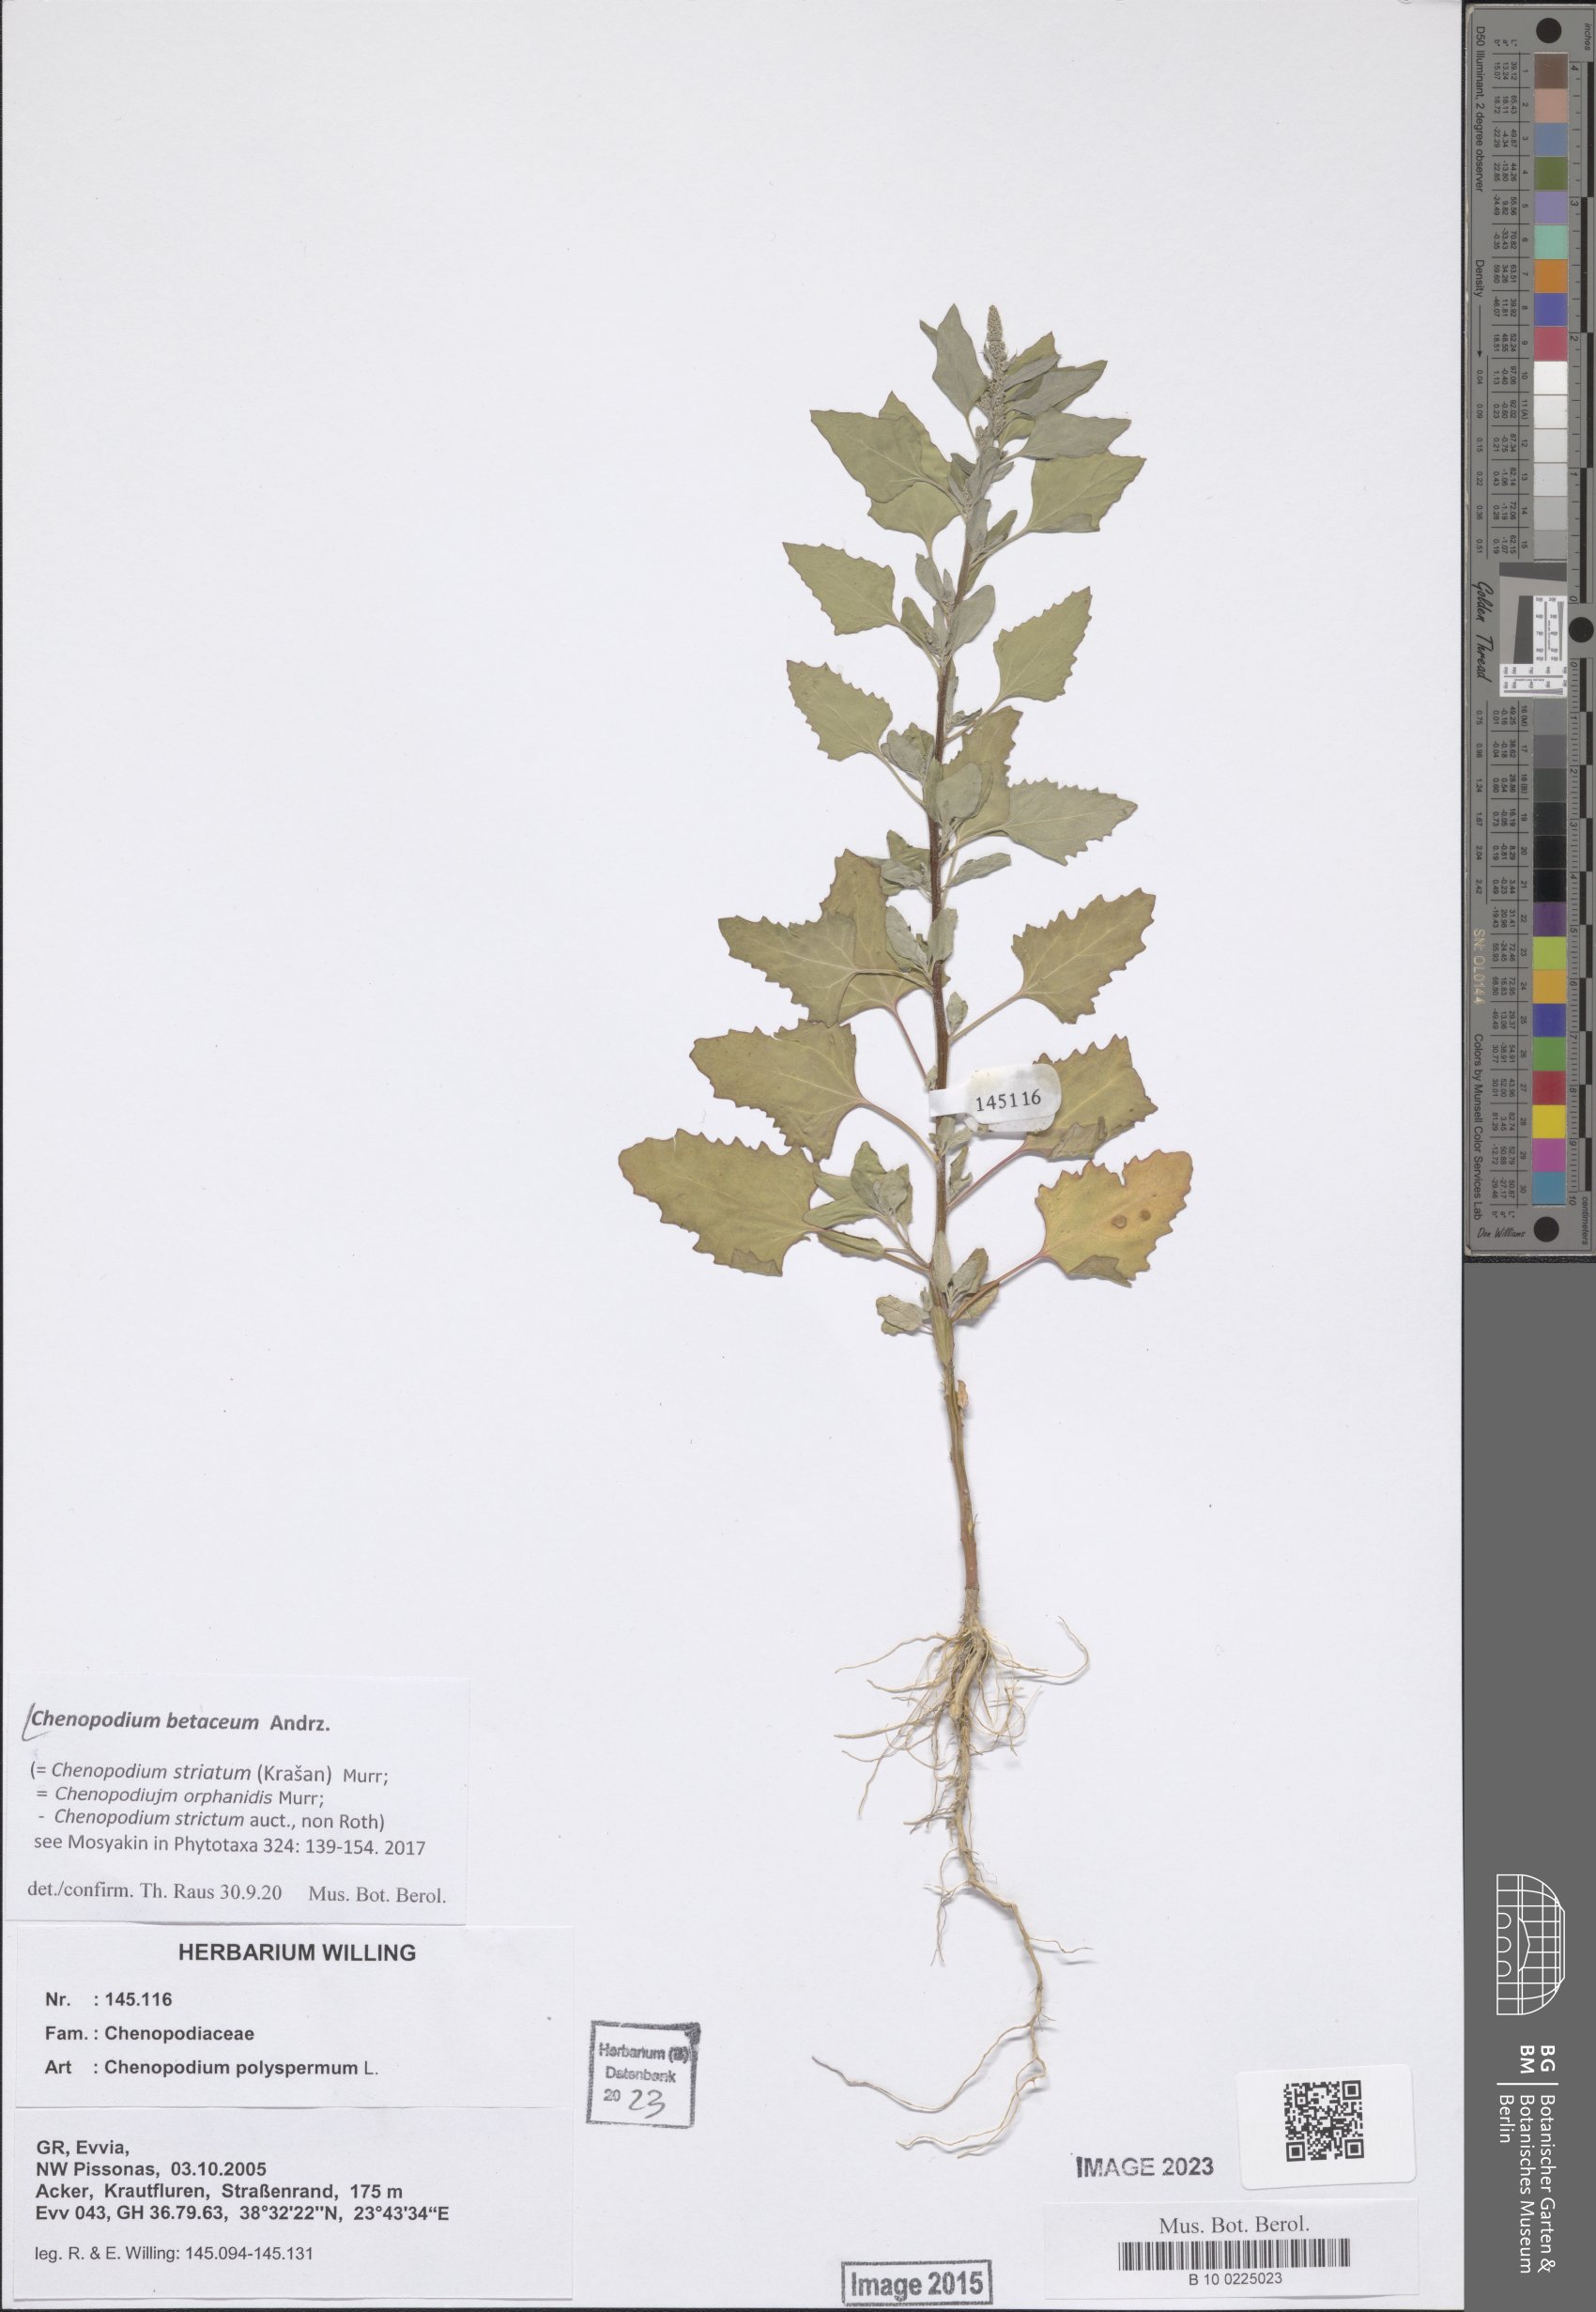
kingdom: Plantae
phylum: Tracheophyta
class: Magnoliopsida
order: Caryophyllales
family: Amaranthaceae
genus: Chenopodium
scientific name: Chenopodium betaceum
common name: Striped goosefoot
